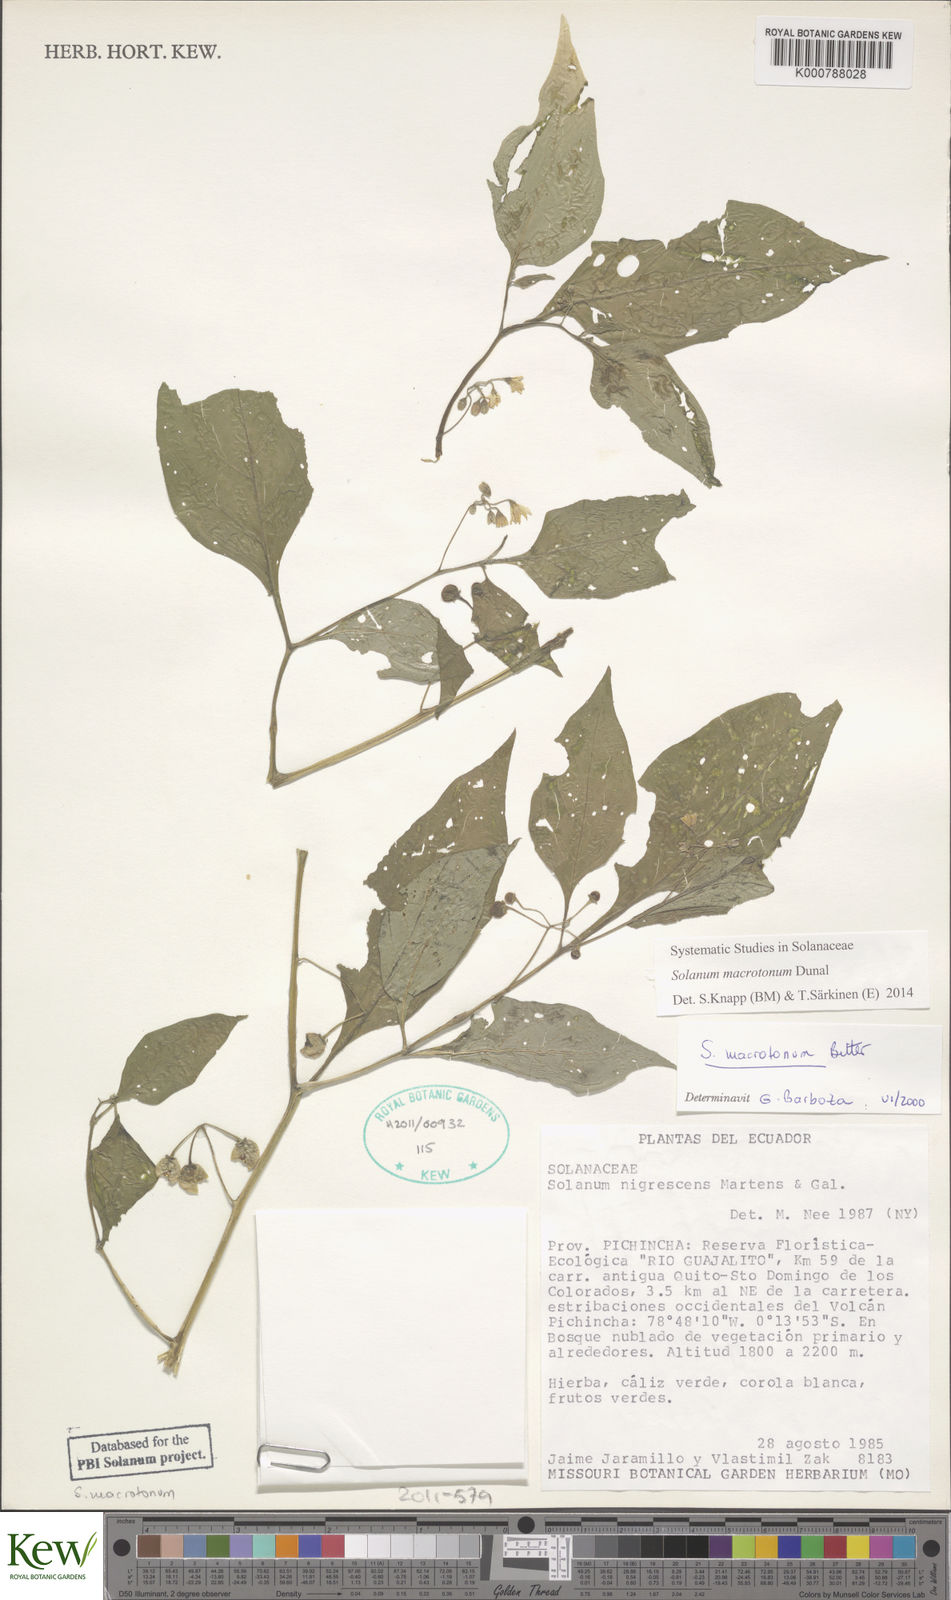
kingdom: Plantae
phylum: Tracheophyta
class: Magnoliopsida
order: Solanales
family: Solanaceae
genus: Solanum
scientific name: Solanum nigrescens
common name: Divine nightshade
